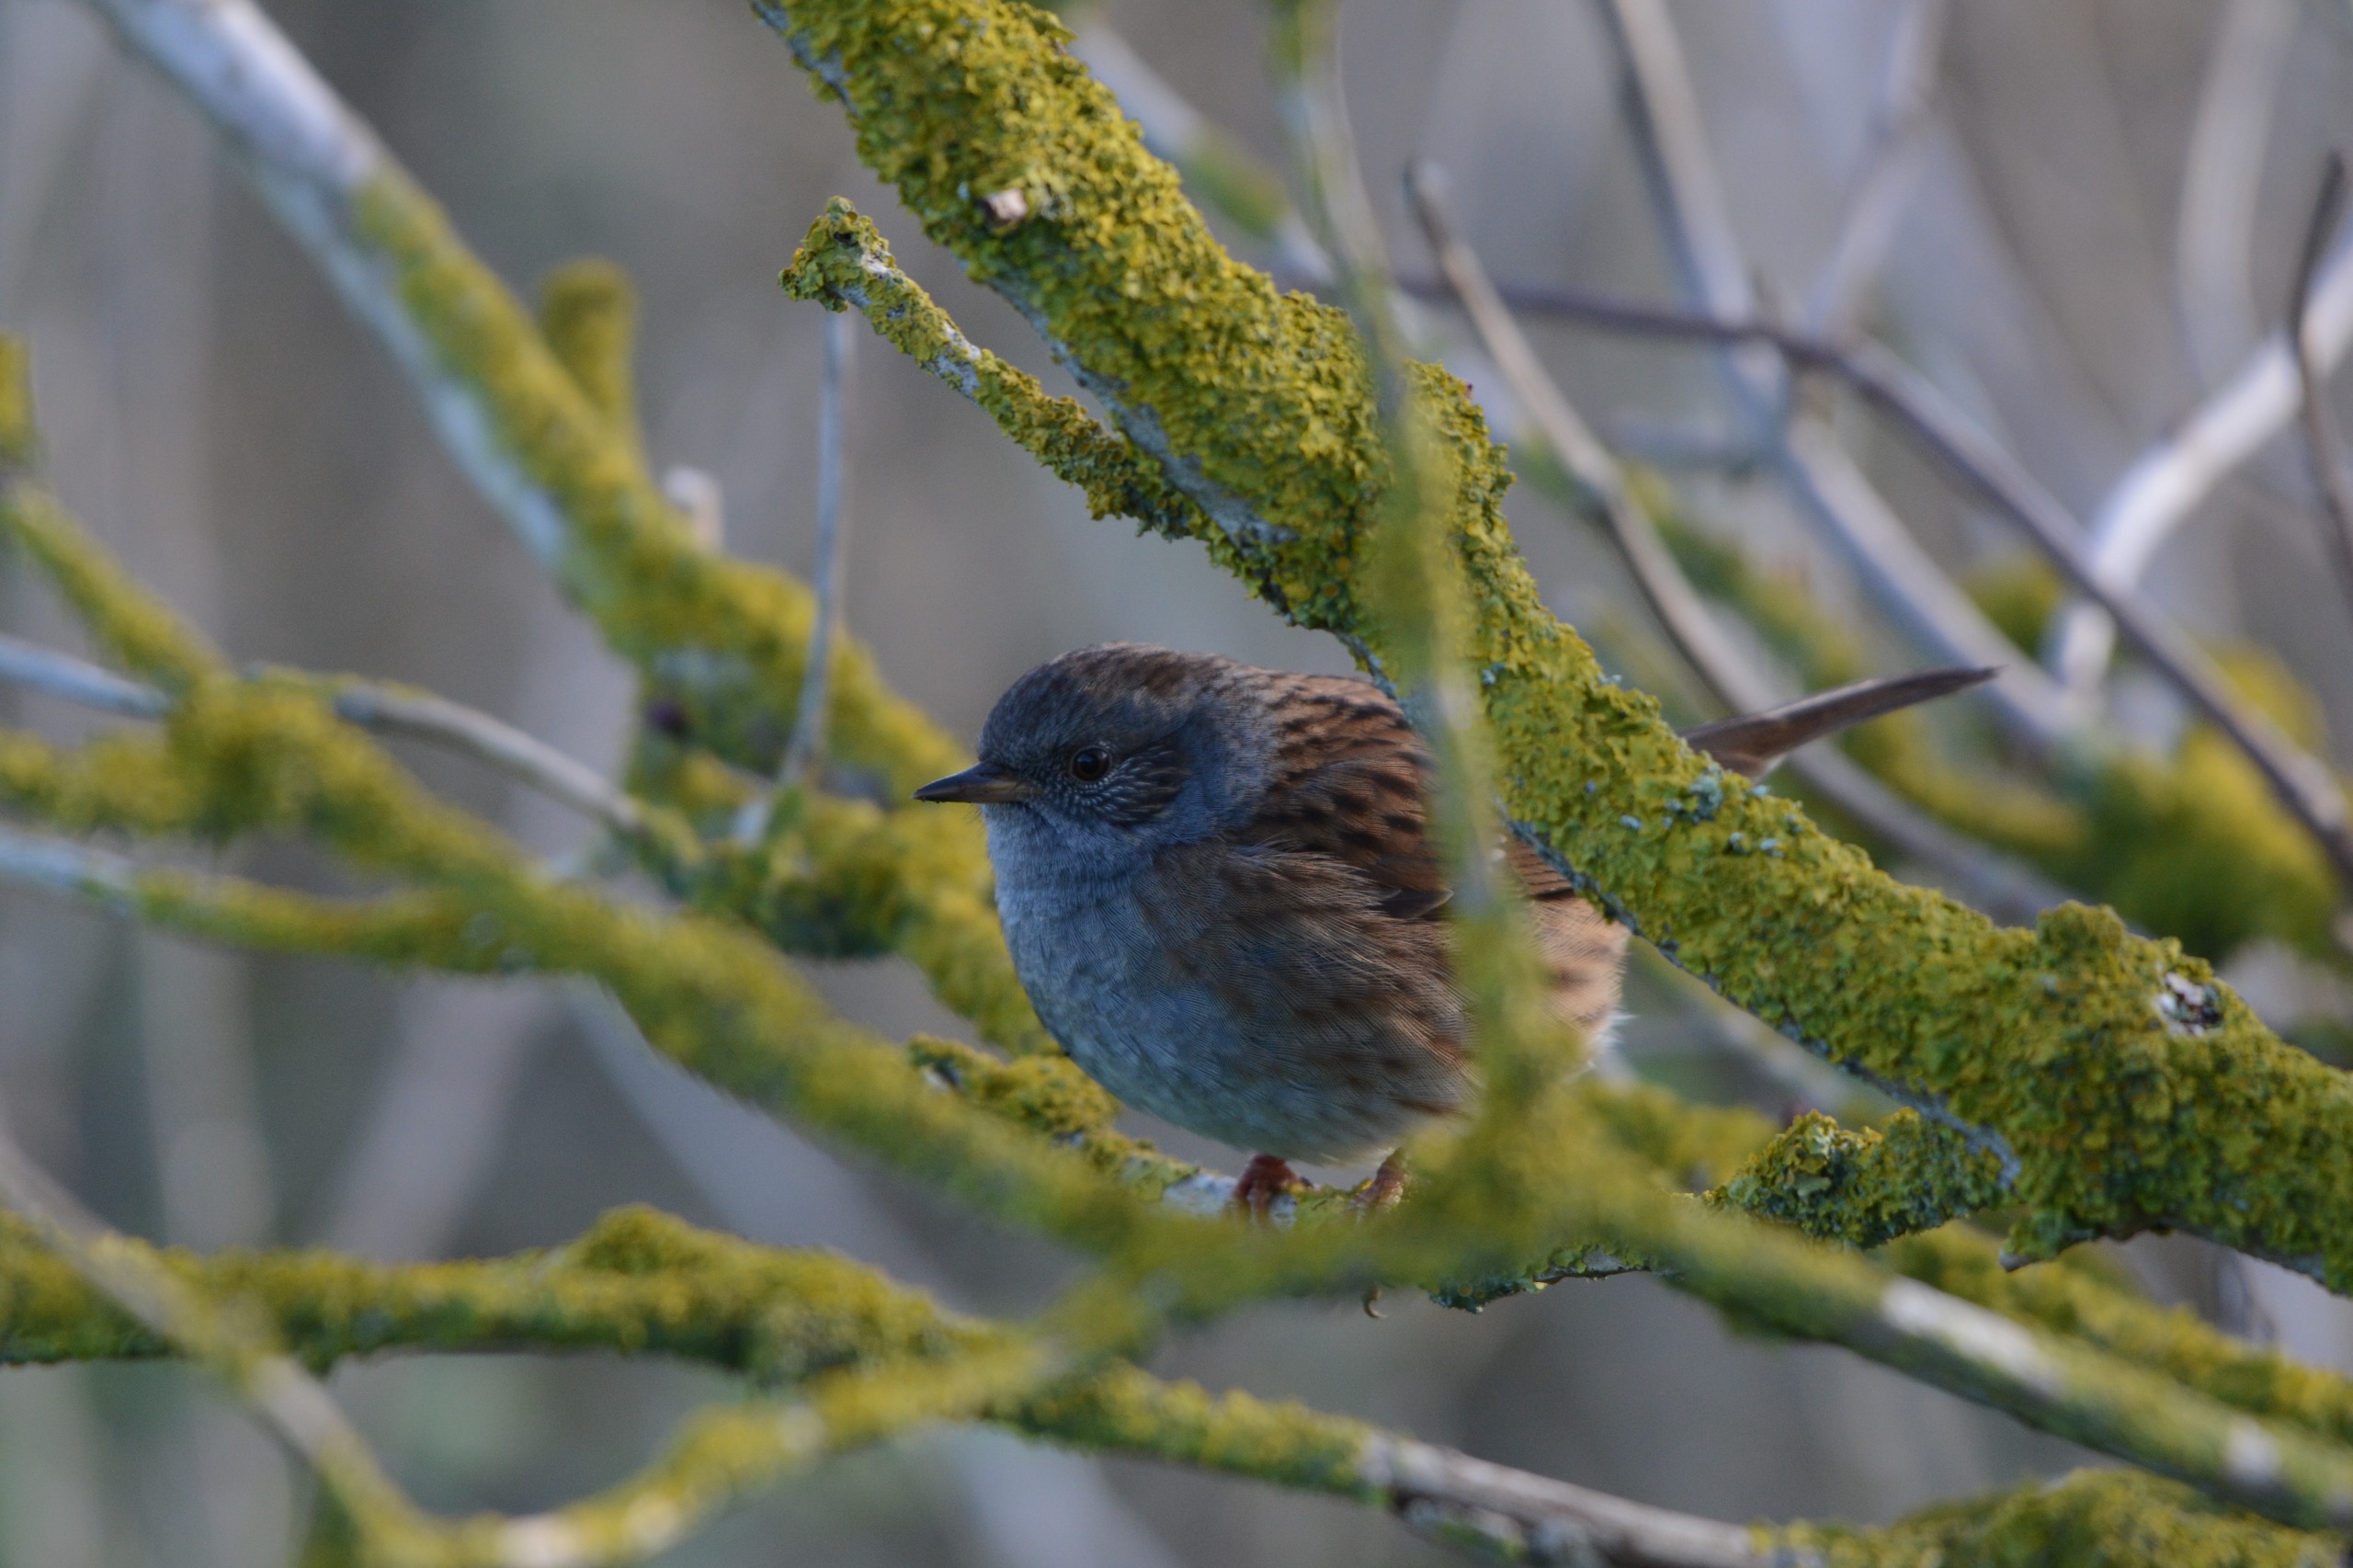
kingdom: Animalia
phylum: Chordata
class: Aves
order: Passeriformes
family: Prunellidae
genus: Prunella
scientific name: Prunella modularis
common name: Jernspurv
